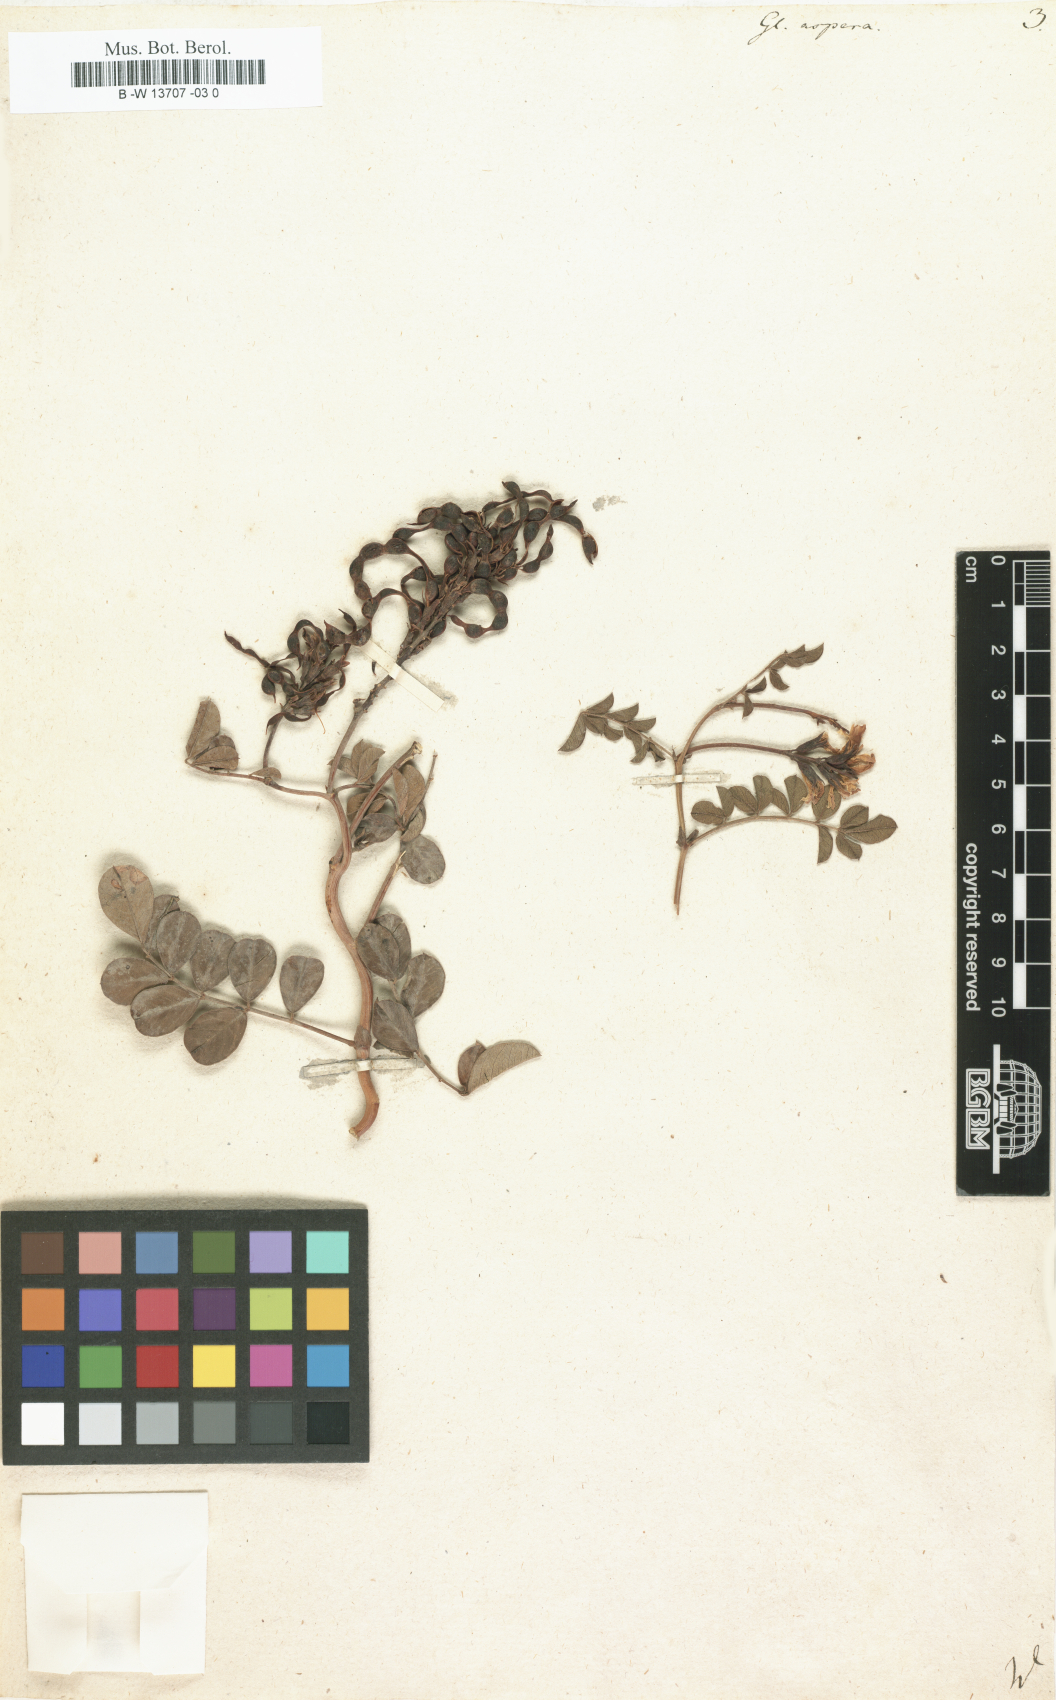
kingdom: Plantae
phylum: Tracheophyta
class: Magnoliopsida
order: Fabales
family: Fabaceae
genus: Glycyrrhiza
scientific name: Glycyrrhiza aspera
